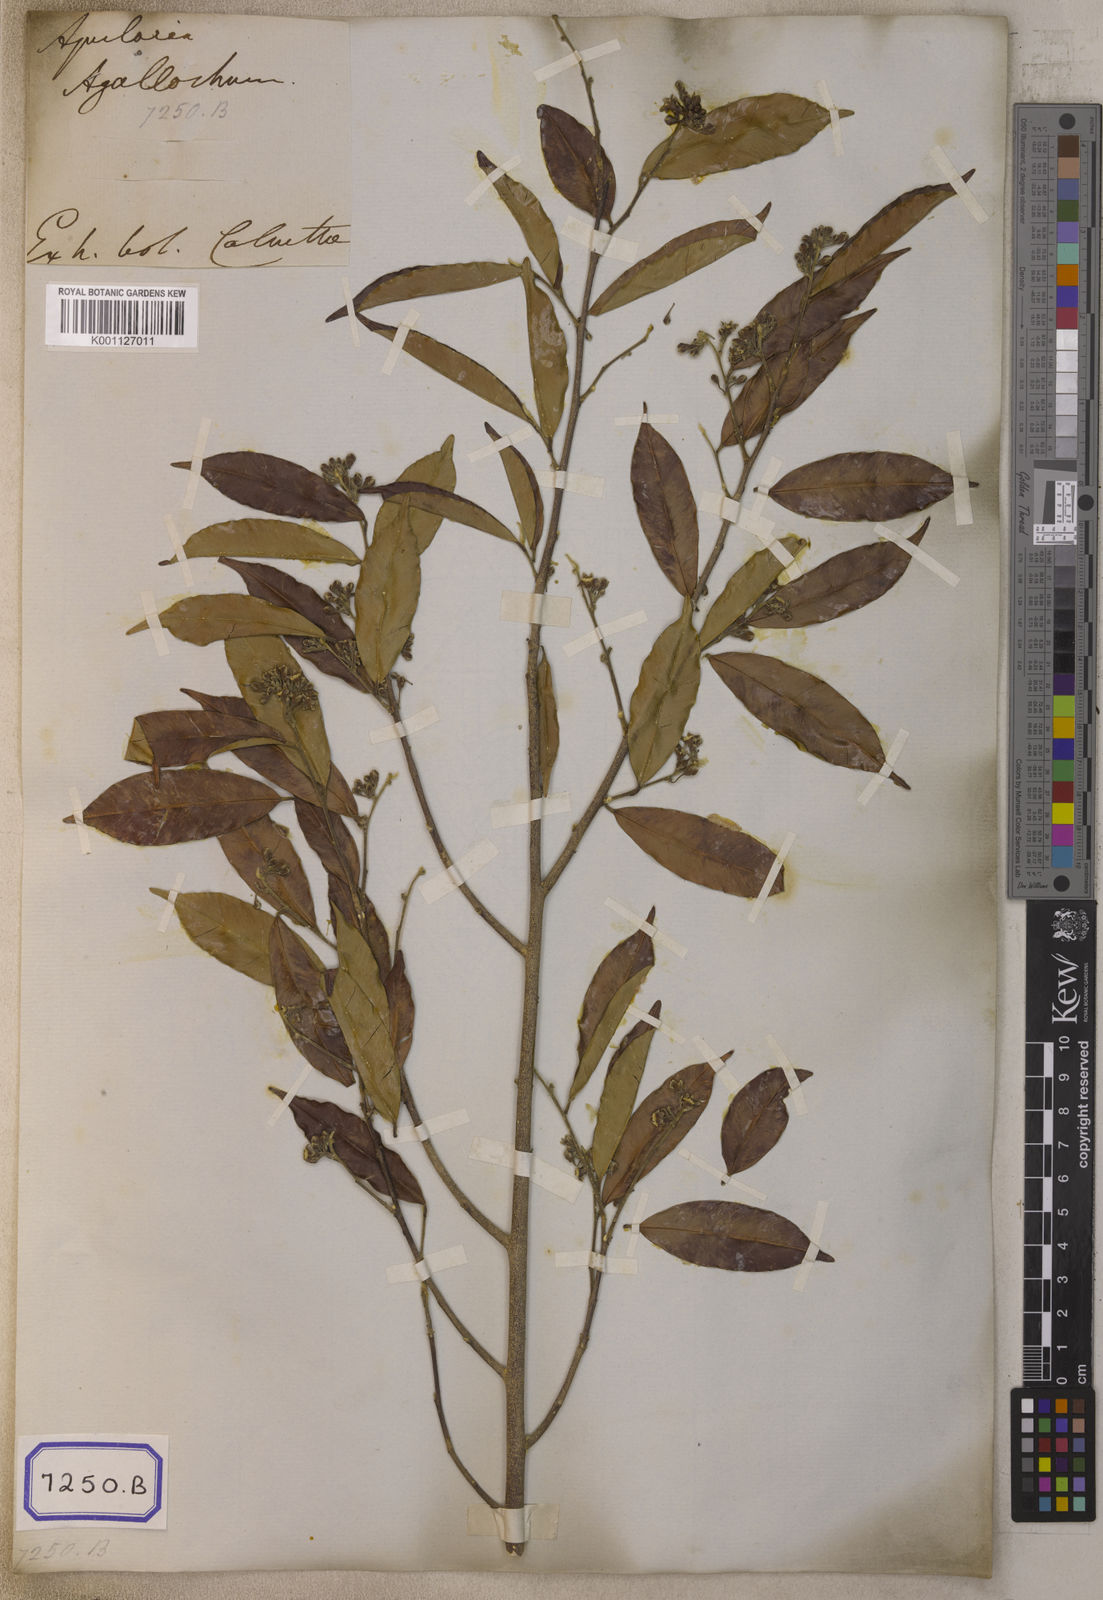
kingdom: Plantae
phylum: Tracheophyta
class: Magnoliopsida
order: Malvales
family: Thymelaeaceae
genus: Aquilaria
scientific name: Aquilaria agallocha
